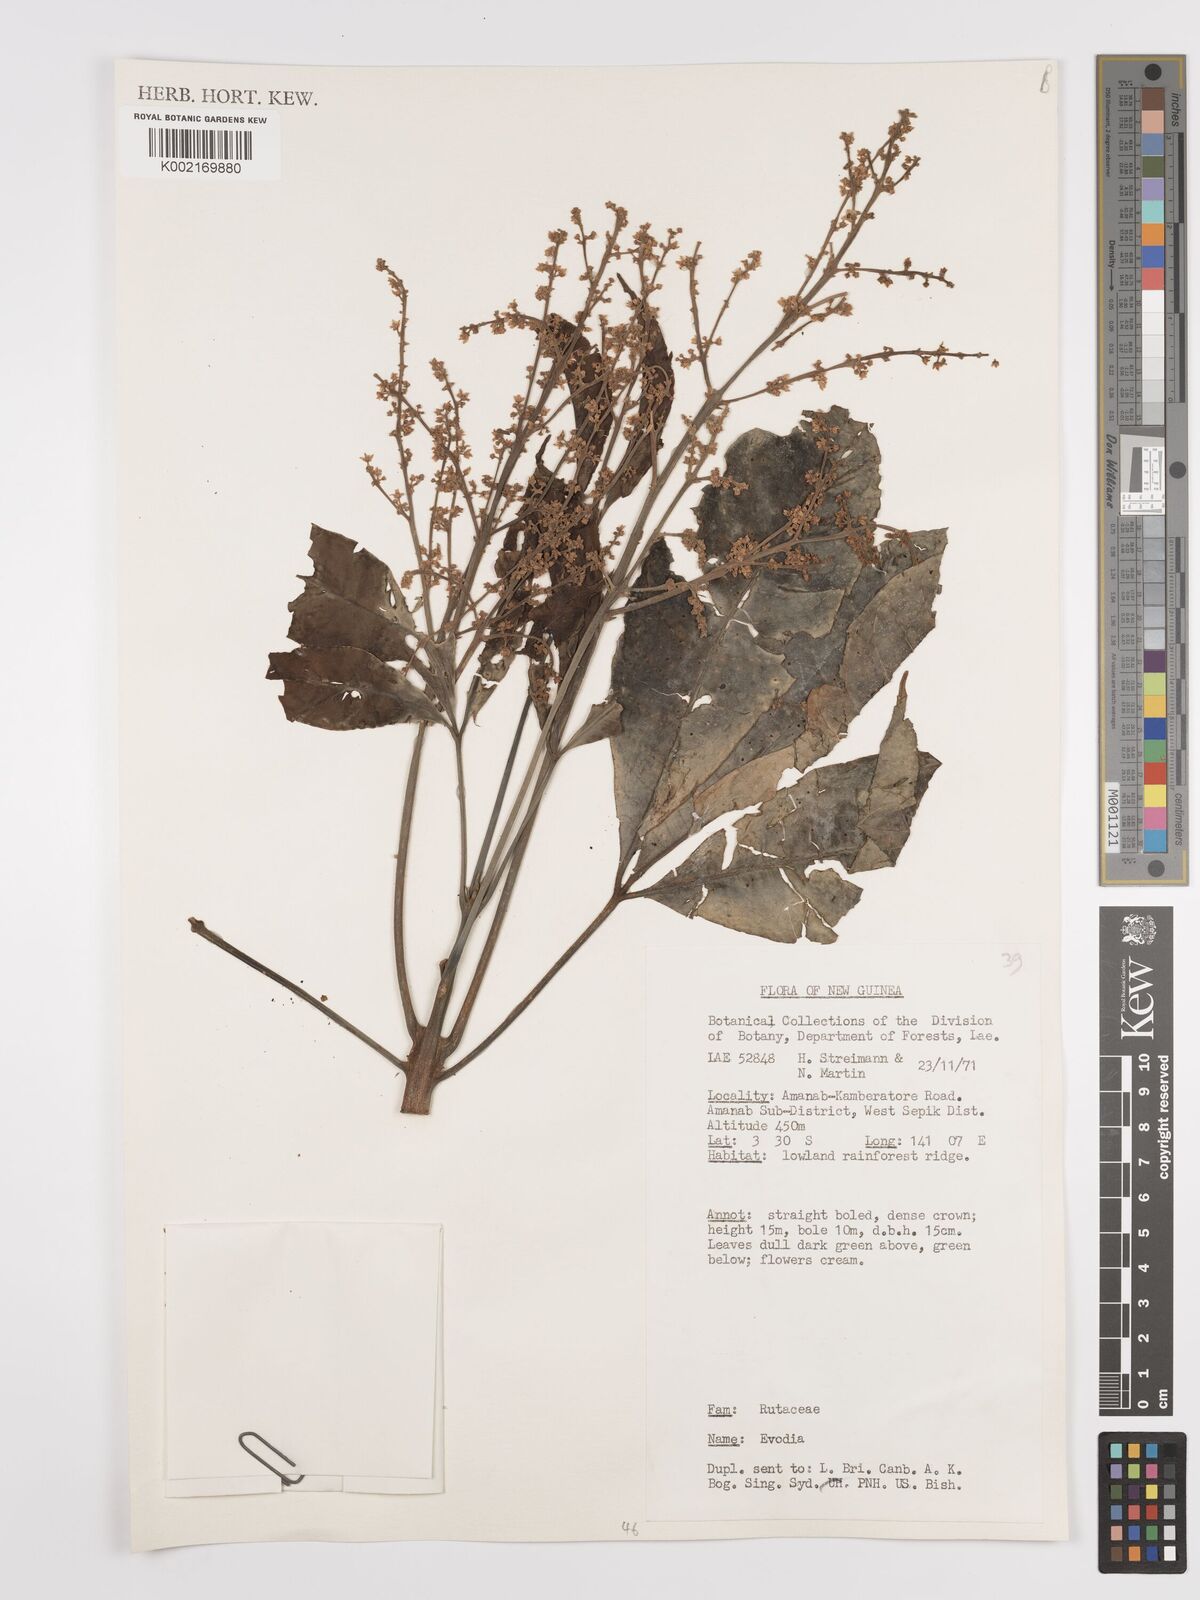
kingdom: Plantae
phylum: Tracheophyta
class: Magnoliopsida
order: Sapindales
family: Rutaceae
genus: Euodia
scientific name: Euodia
